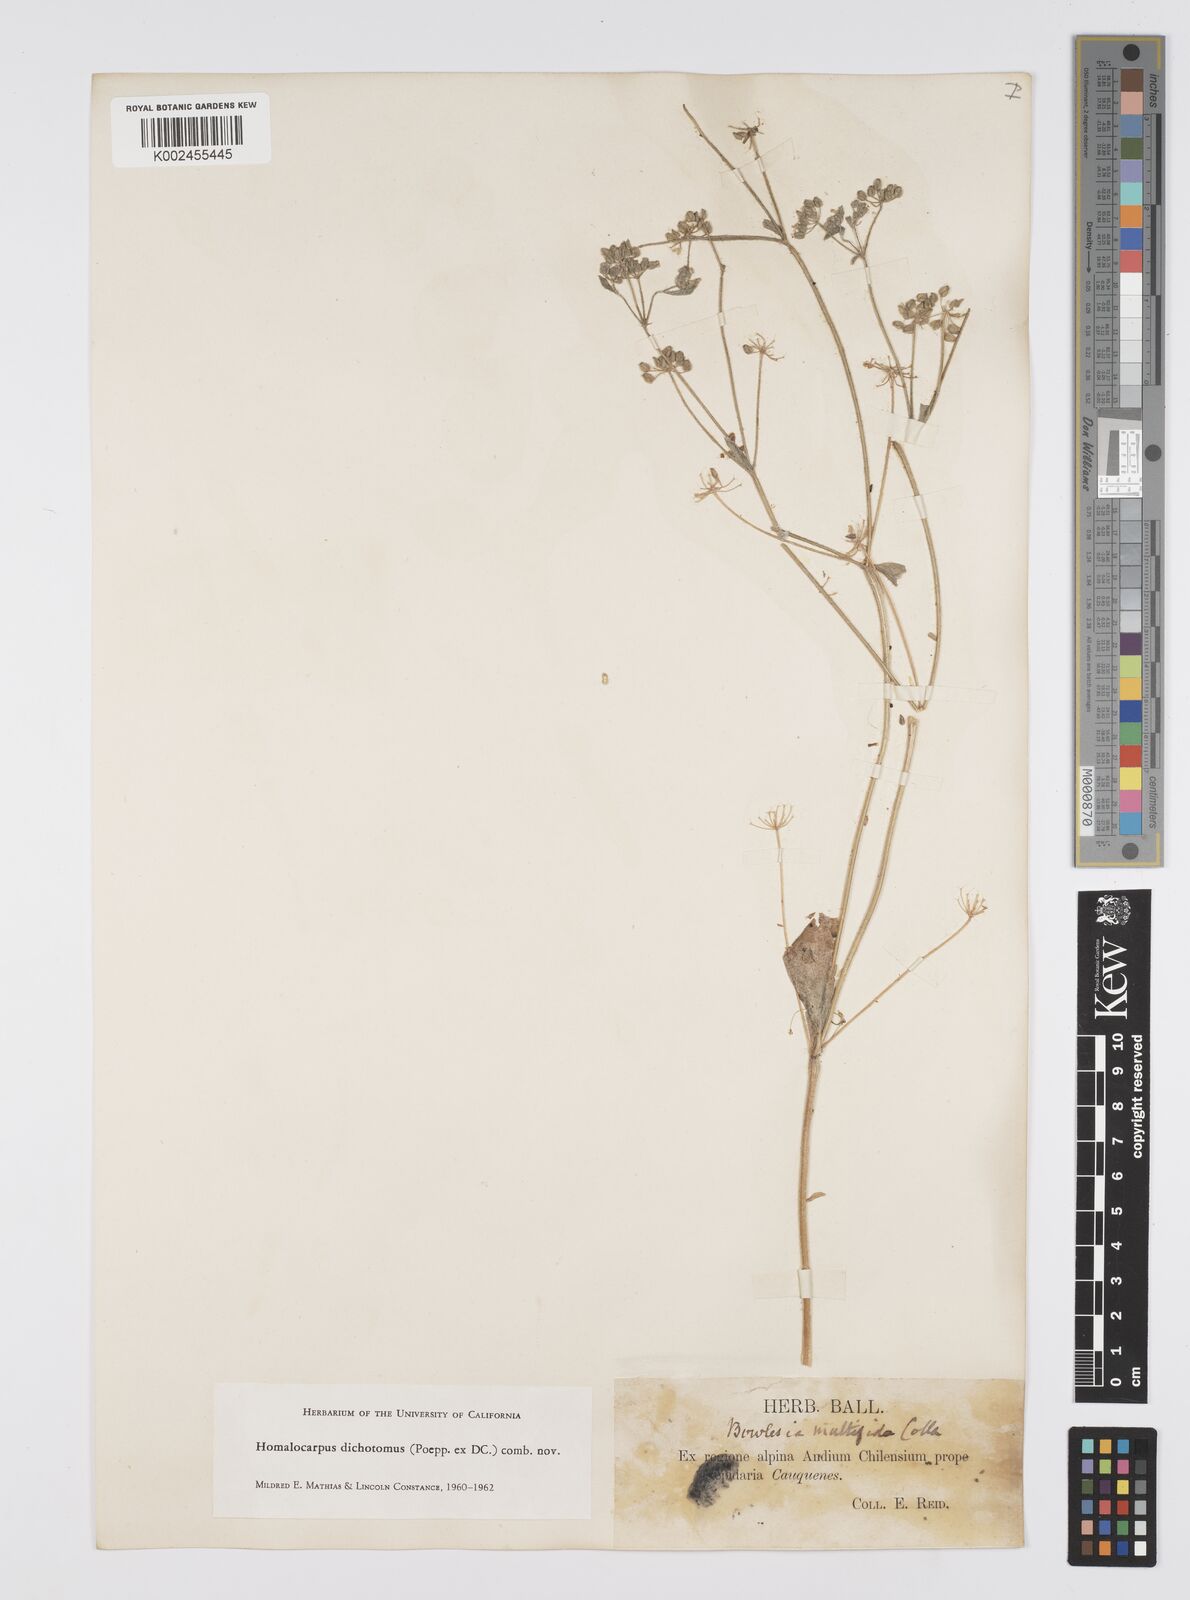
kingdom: Plantae
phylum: Tracheophyta
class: Magnoliopsida
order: Apiales
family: Apiaceae
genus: Homalocarpus
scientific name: Homalocarpus dichotomus
